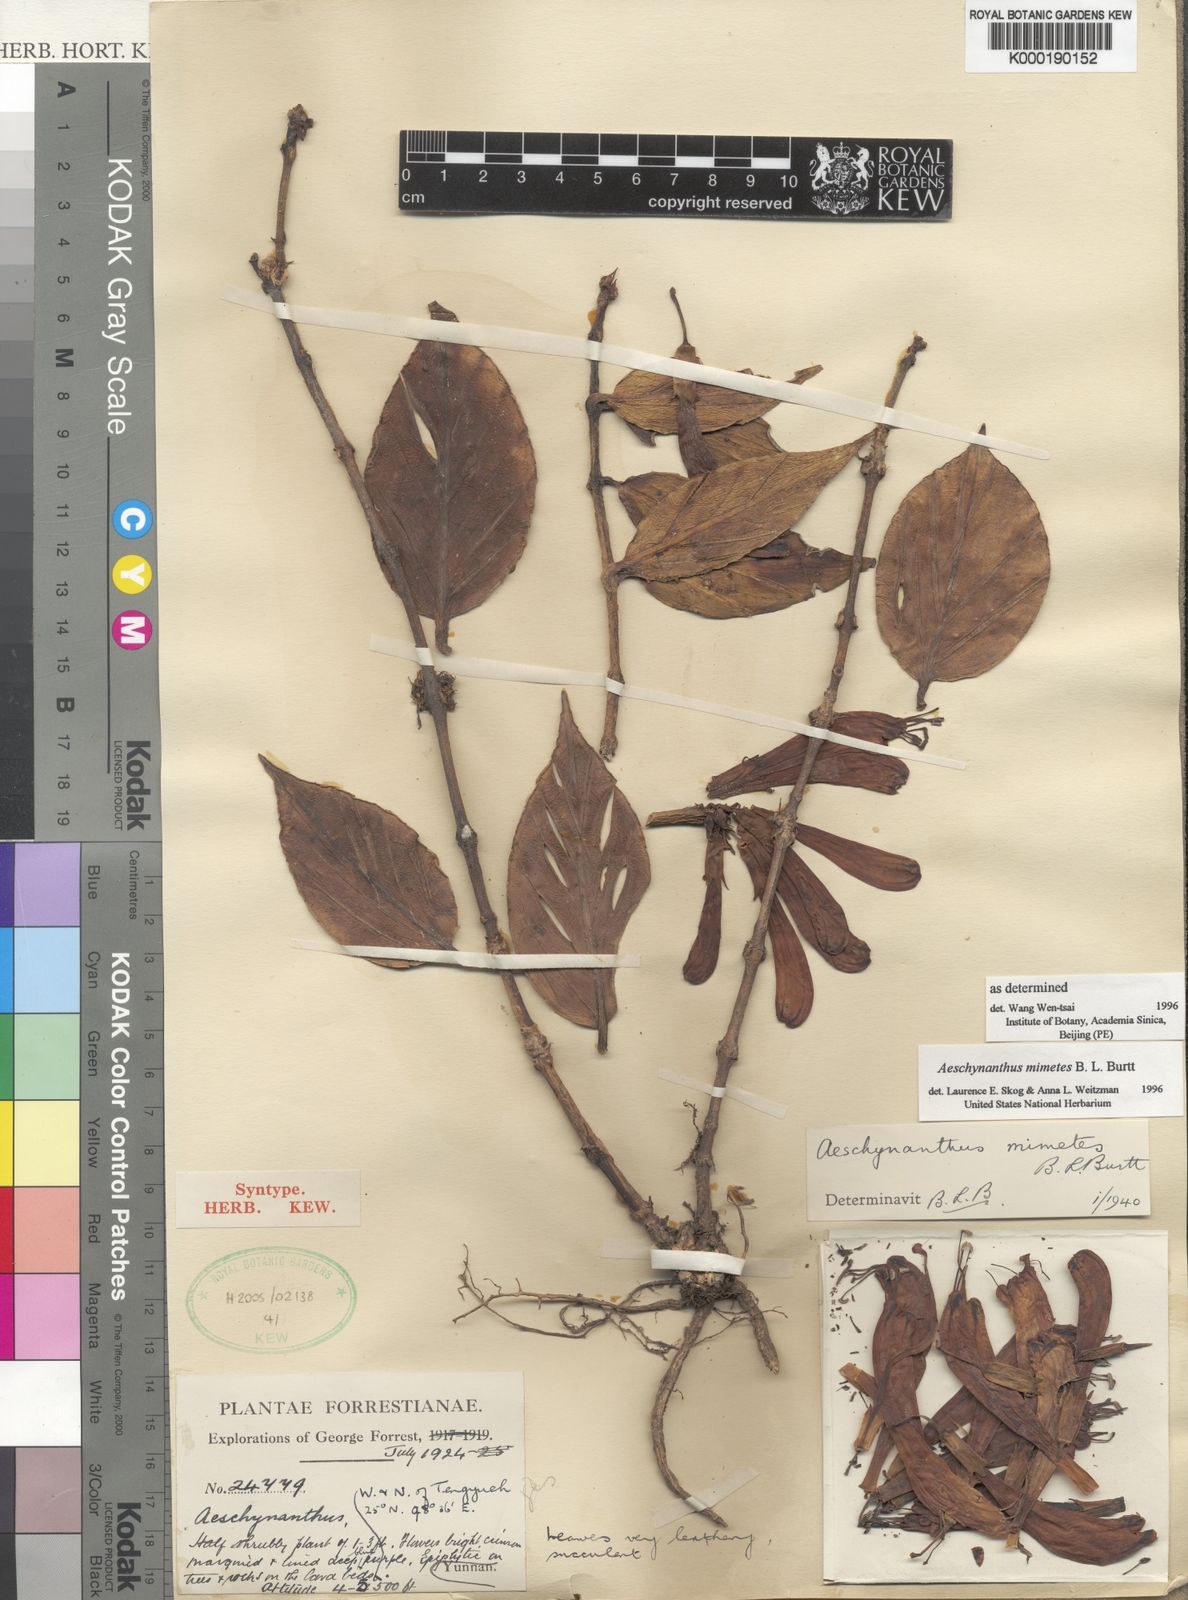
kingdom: Plantae
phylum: Tracheophyta
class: Magnoliopsida
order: Lamiales
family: Gesneriaceae
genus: Aeschynanthus
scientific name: Aeschynanthus parasiticus
